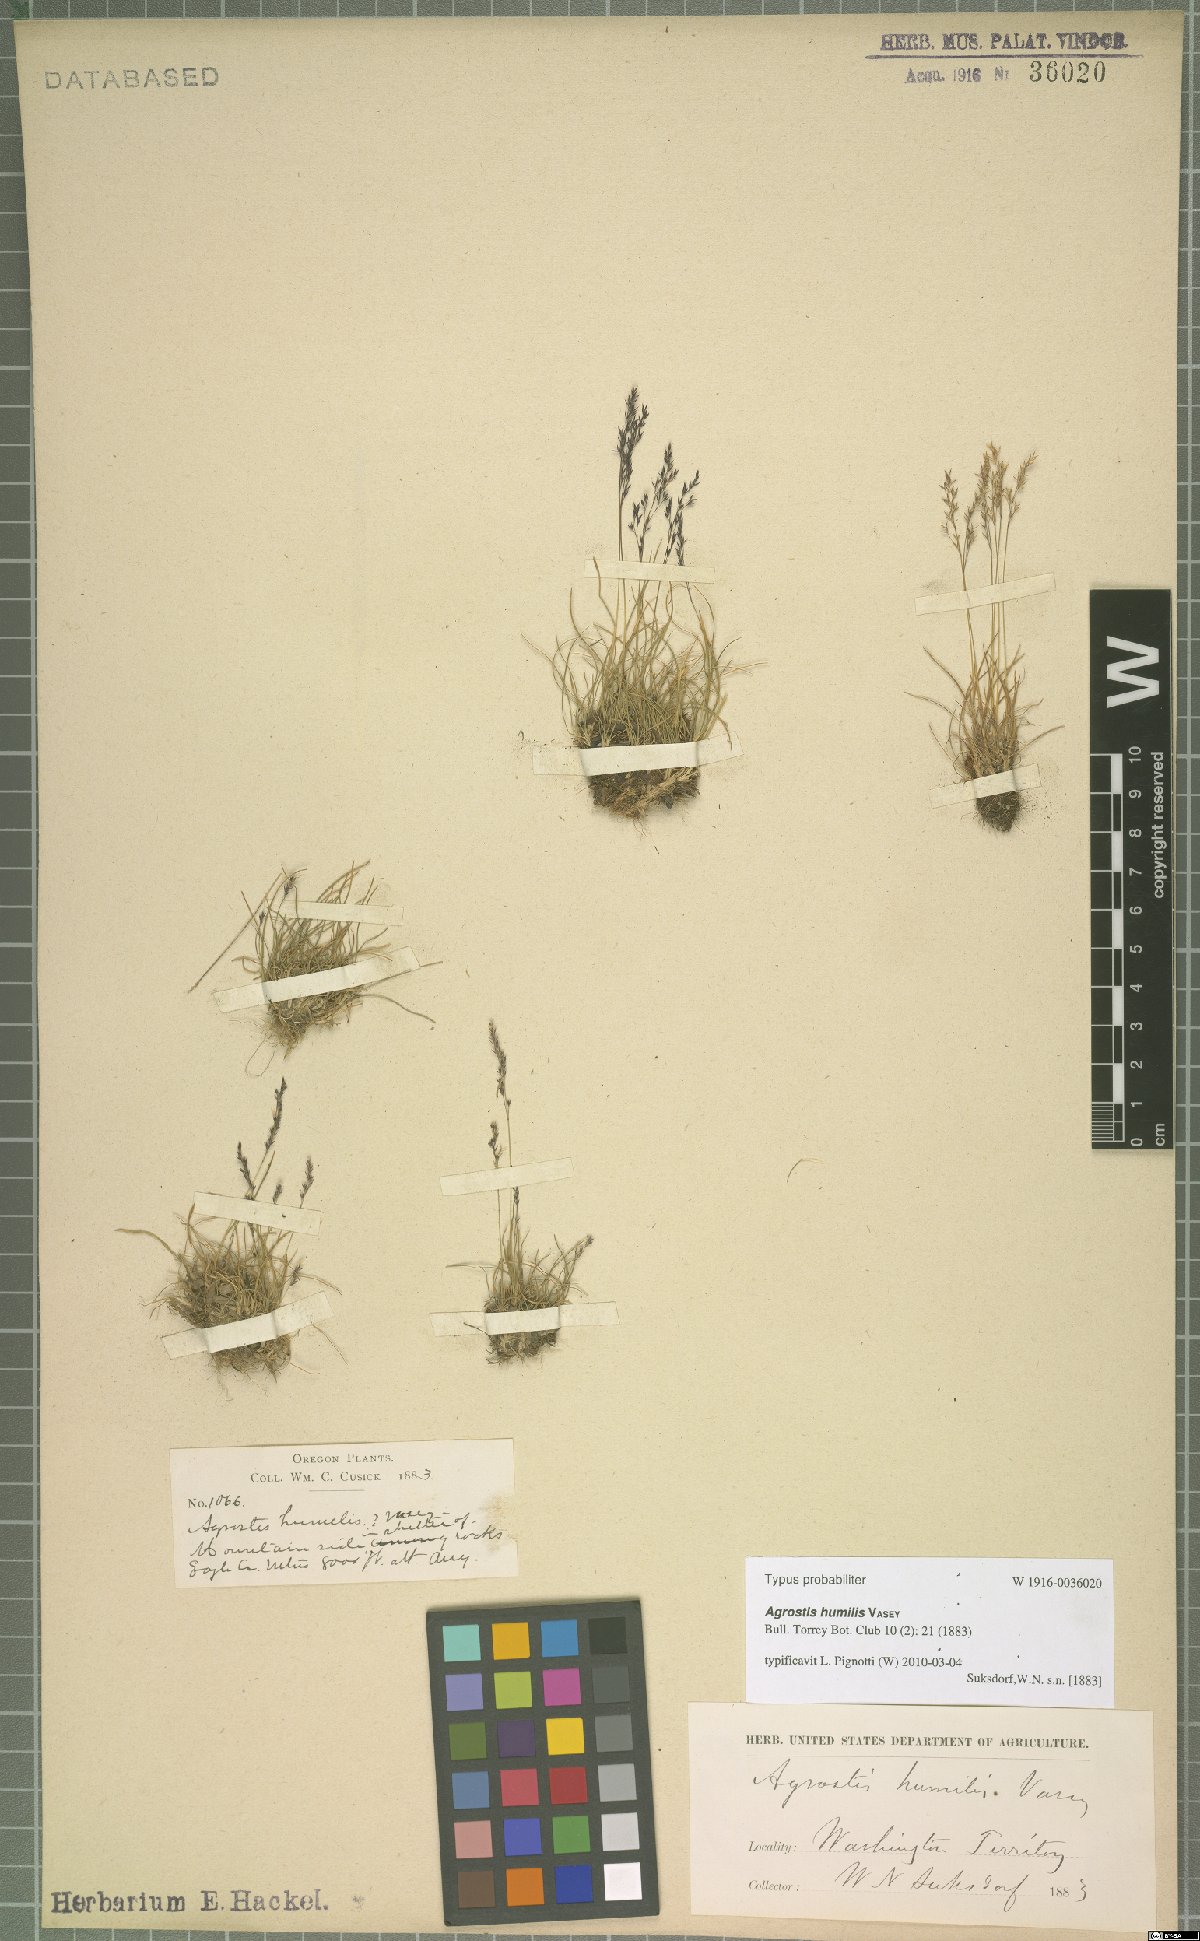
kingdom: Plantae
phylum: Tracheophyta
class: Liliopsida
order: Poales
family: Poaceae
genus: Podagrostis
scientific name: Podagrostis humilis
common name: Thurber's bentgrass
